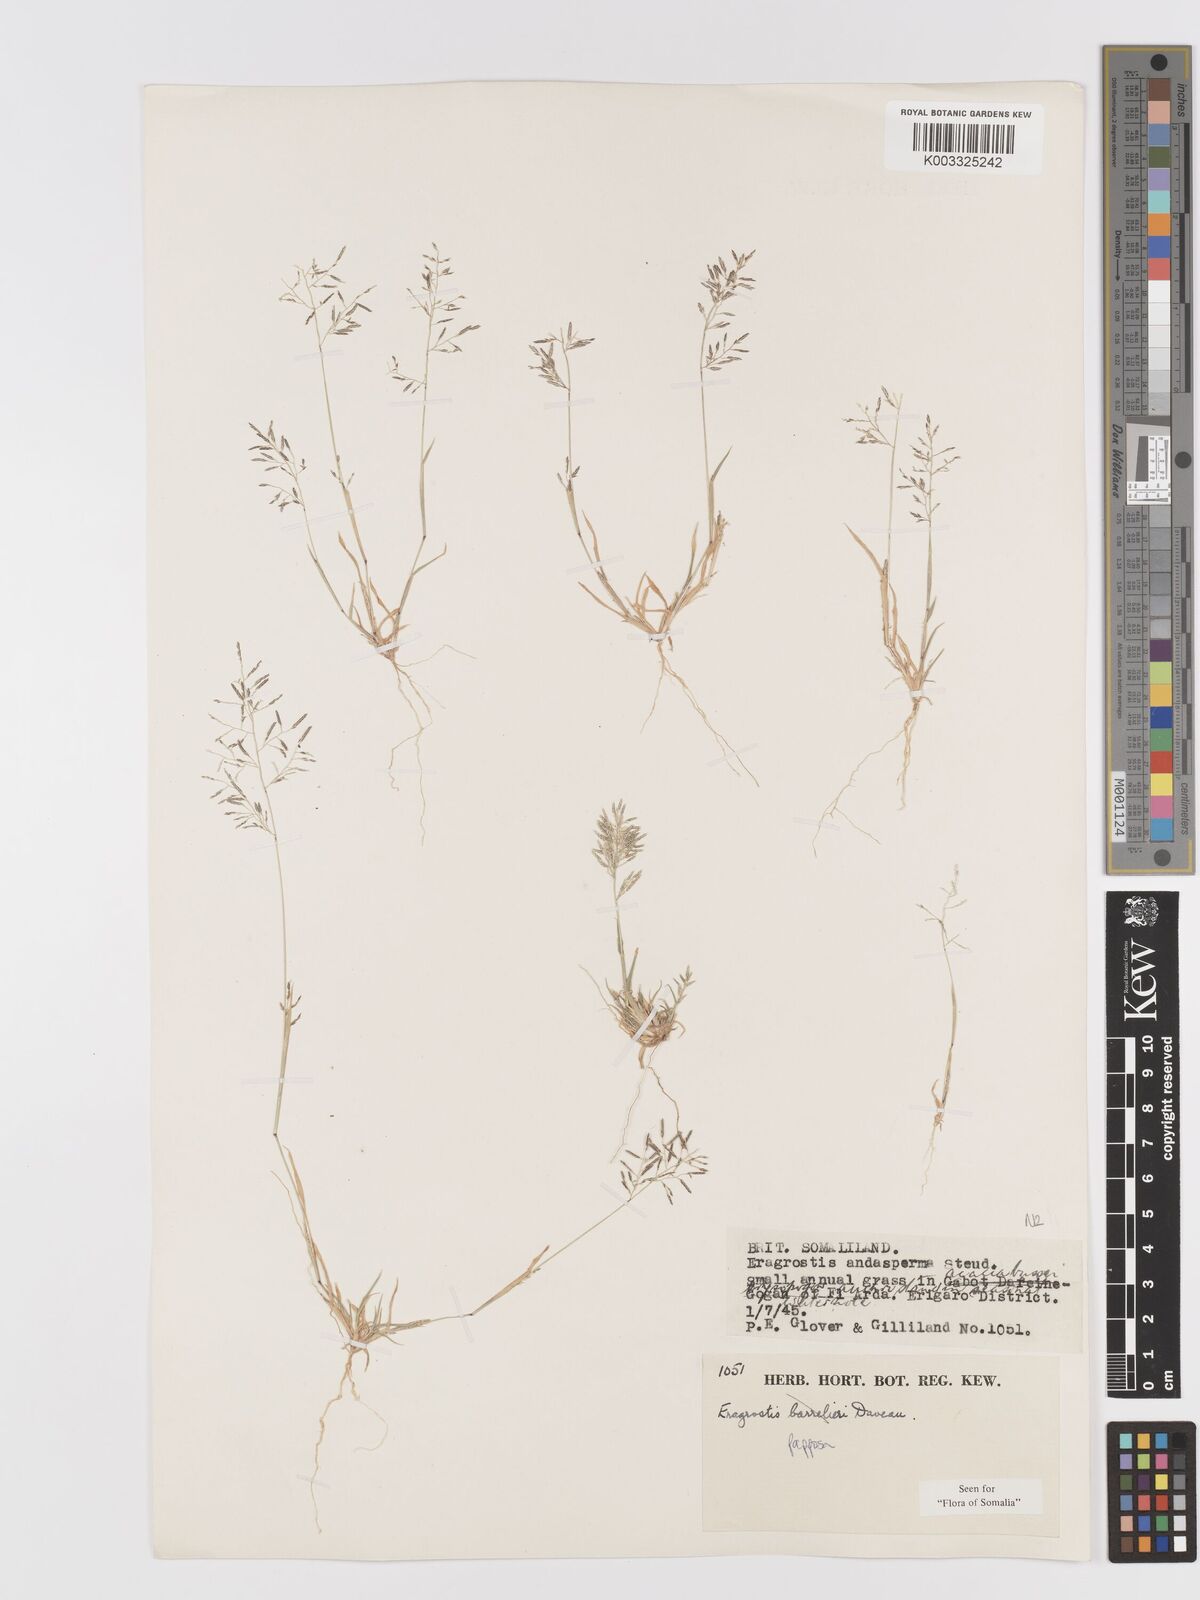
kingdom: Plantae
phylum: Tracheophyta
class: Liliopsida
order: Poales
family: Poaceae
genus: Eragrostis
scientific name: Eragrostis papposa
